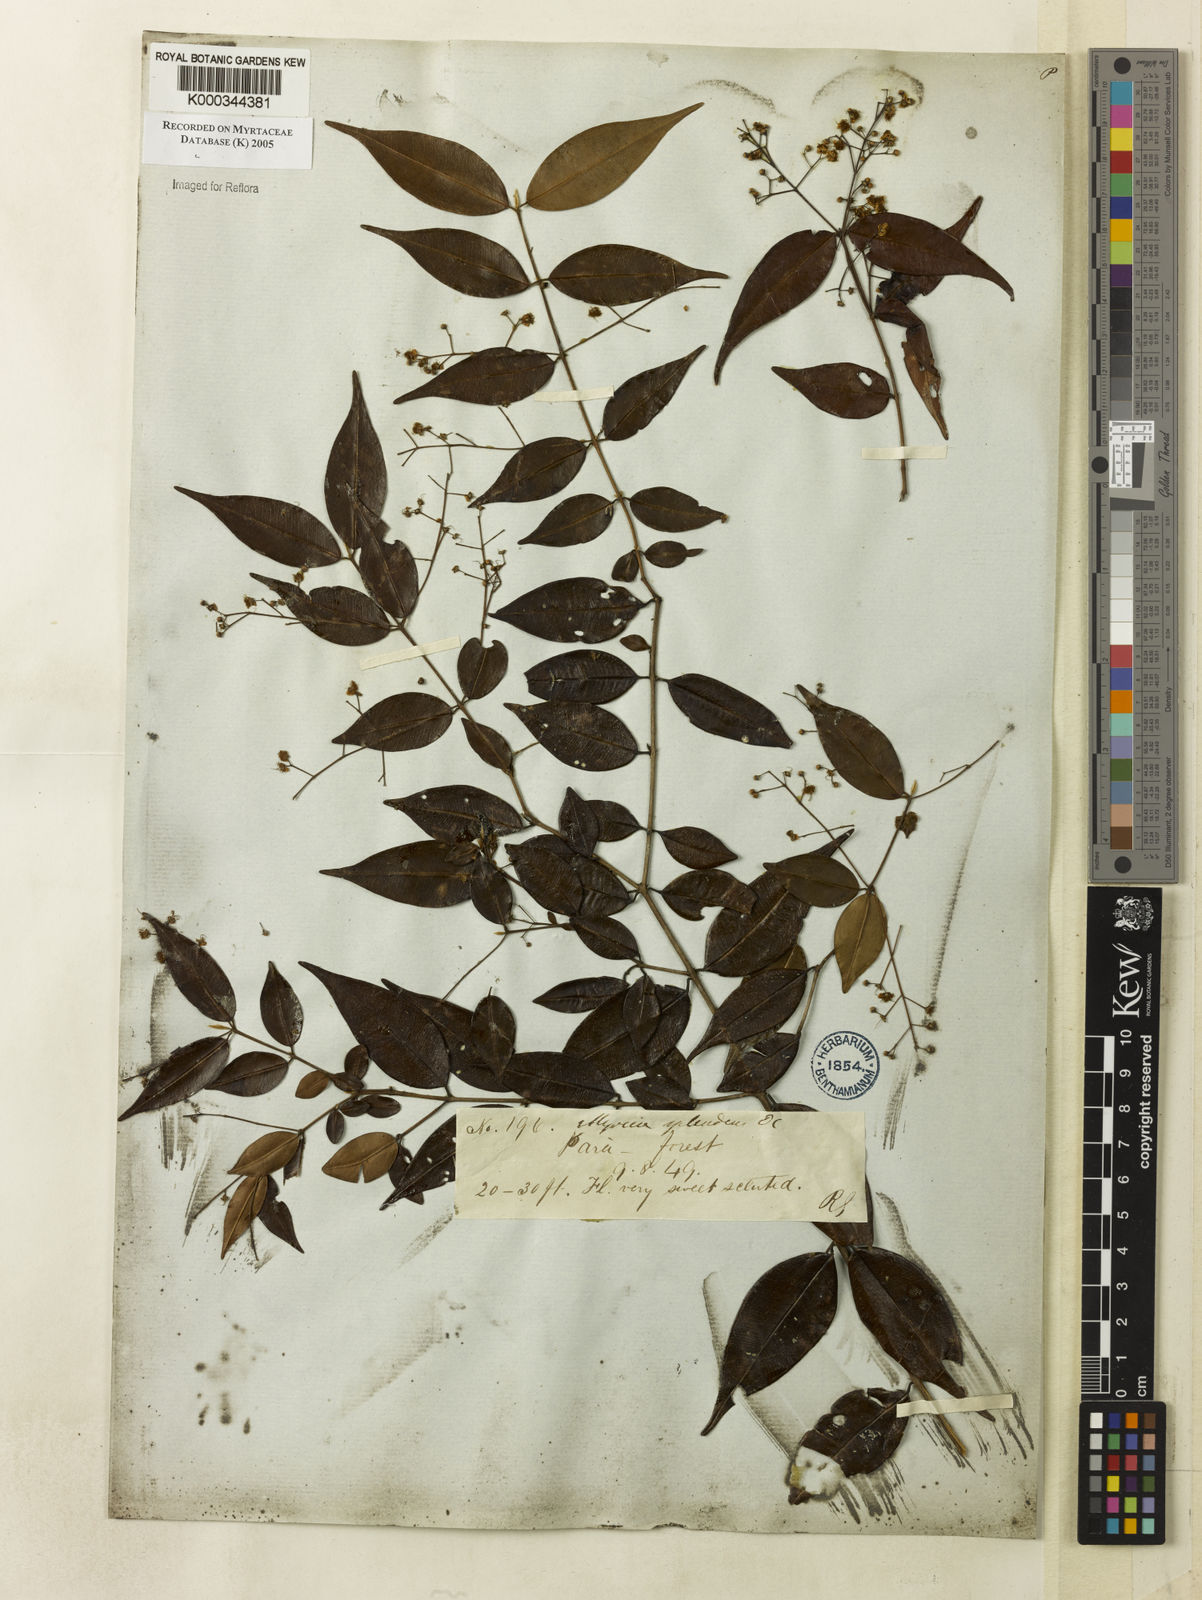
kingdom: Plantae
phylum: Tracheophyta
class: Magnoliopsida
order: Myrtales
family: Myrtaceae
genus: Myrcia
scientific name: Myrcia splendens
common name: Surinam cherry
